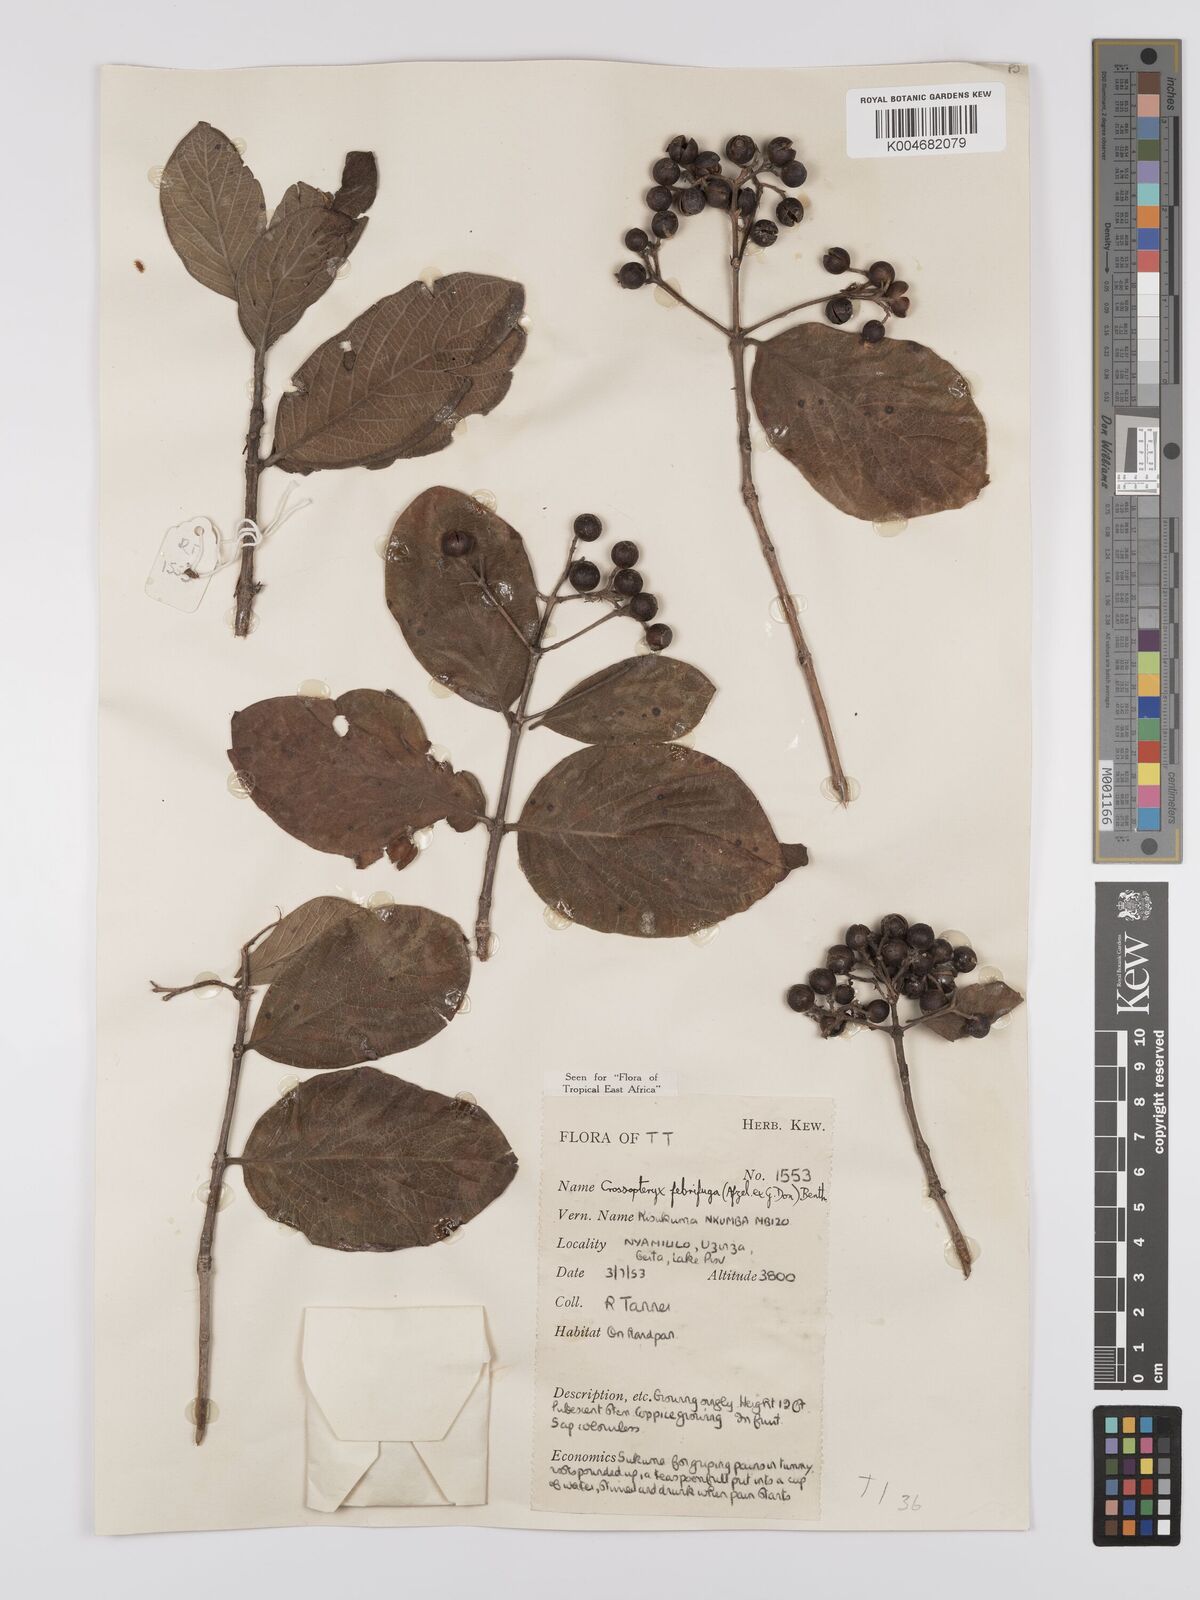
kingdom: Plantae
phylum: Tracheophyta
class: Magnoliopsida
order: Gentianales
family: Rubiaceae
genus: Crossopteryx
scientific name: Crossopteryx febrifuga
